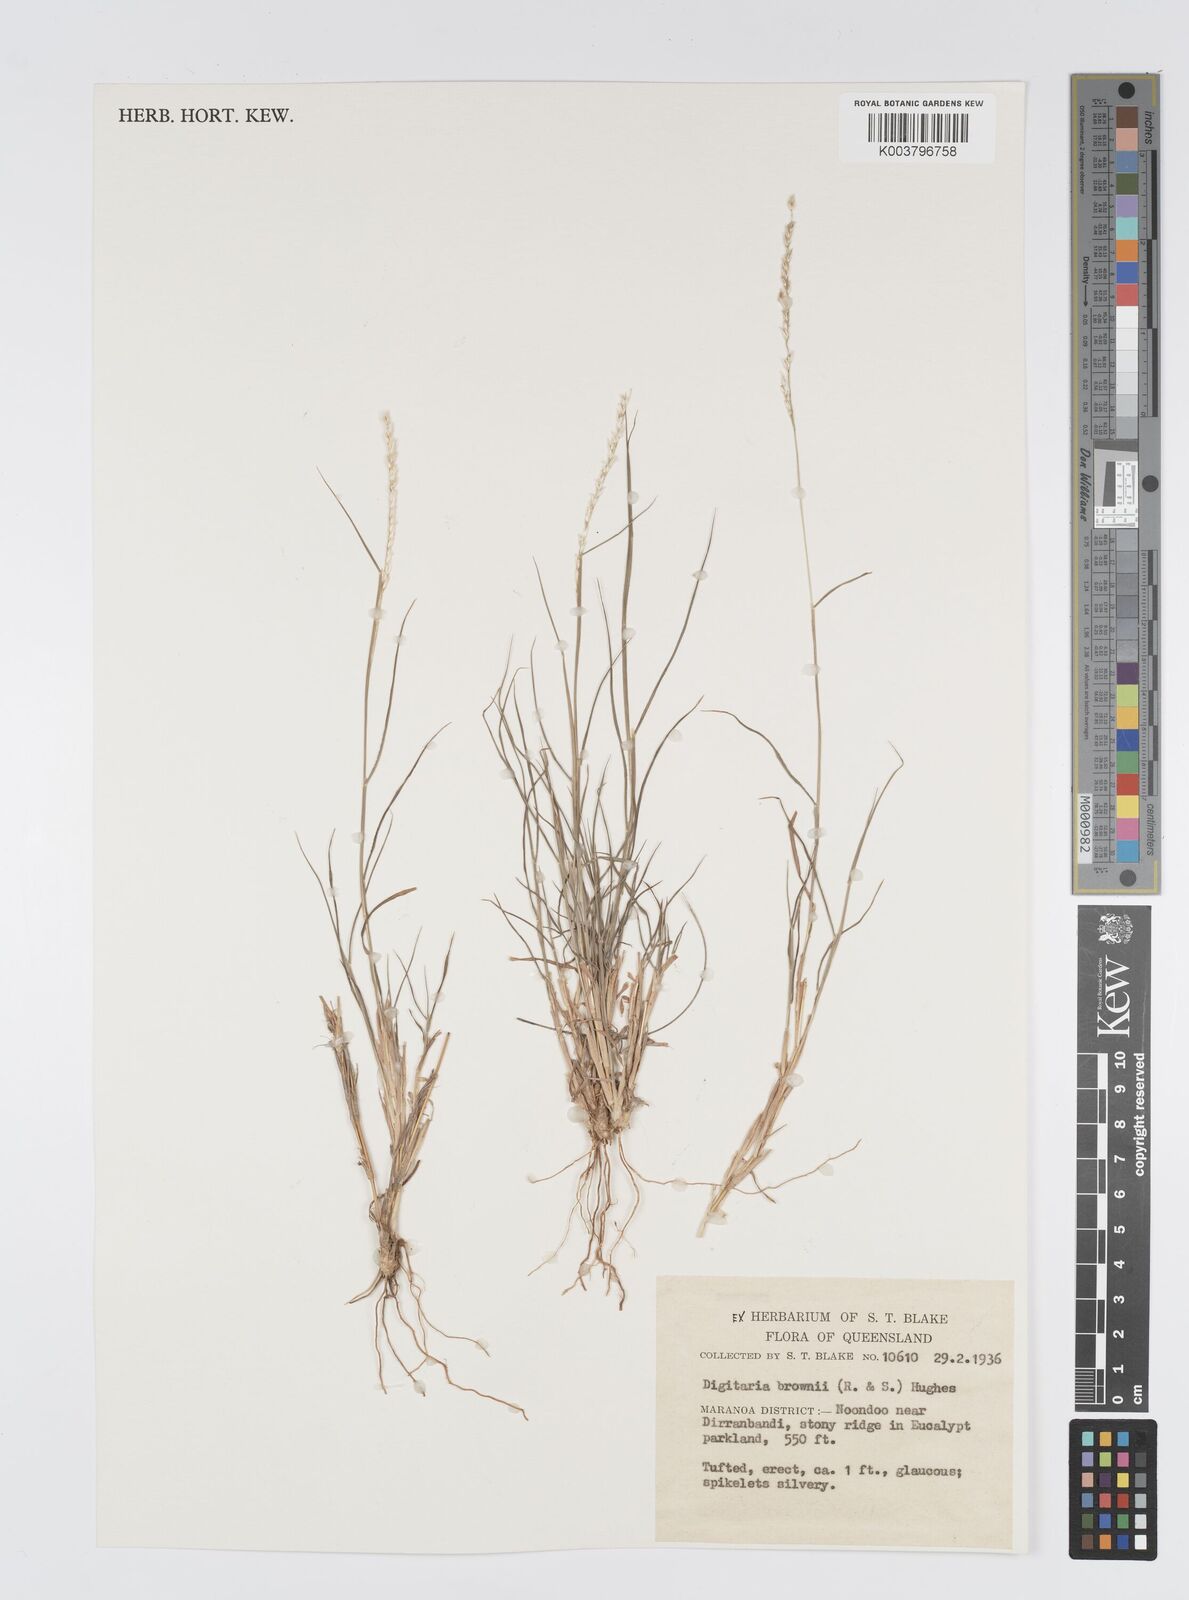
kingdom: Plantae
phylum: Tracheophyta
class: Liliopsida
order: Poales
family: Poaceae
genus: Digitaria
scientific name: Digitaria brownii
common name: Cotton grass
